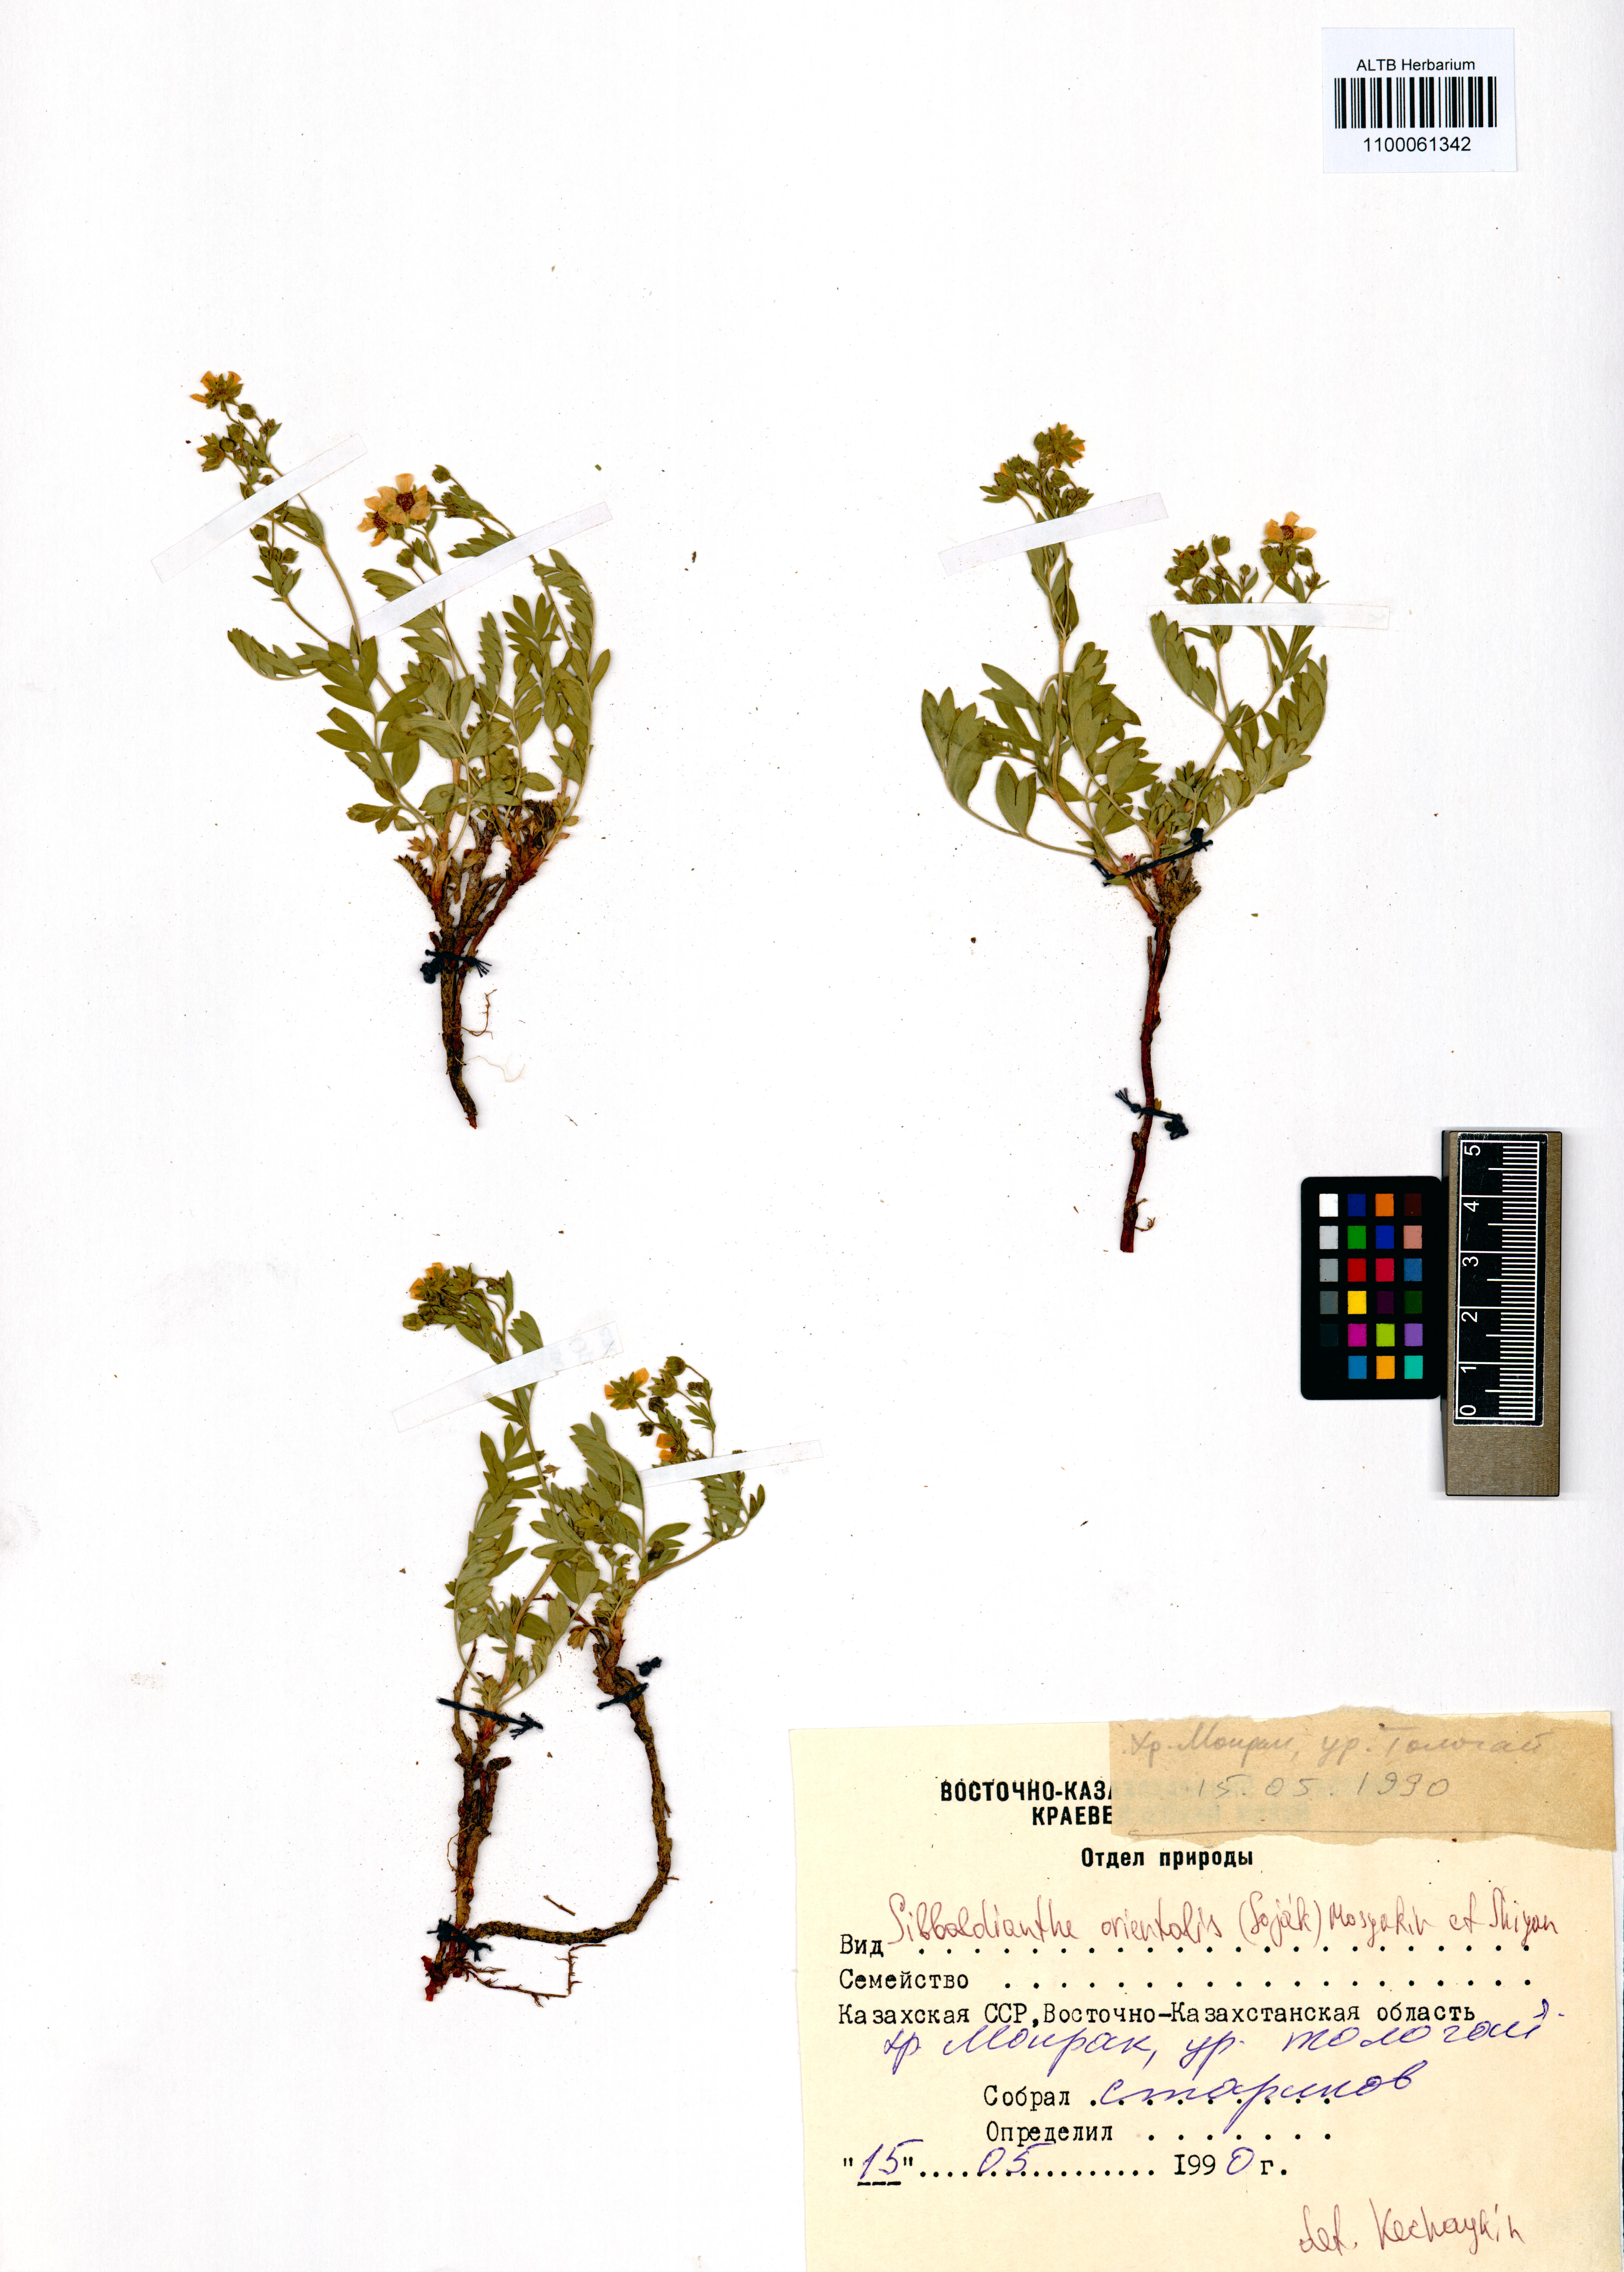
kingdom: Plantae
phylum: Tracheophyta
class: Magnoliopsida
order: Rosales
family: Rosaceae
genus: Sibbaldianthe
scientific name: Sibbaldianthe orientalis
